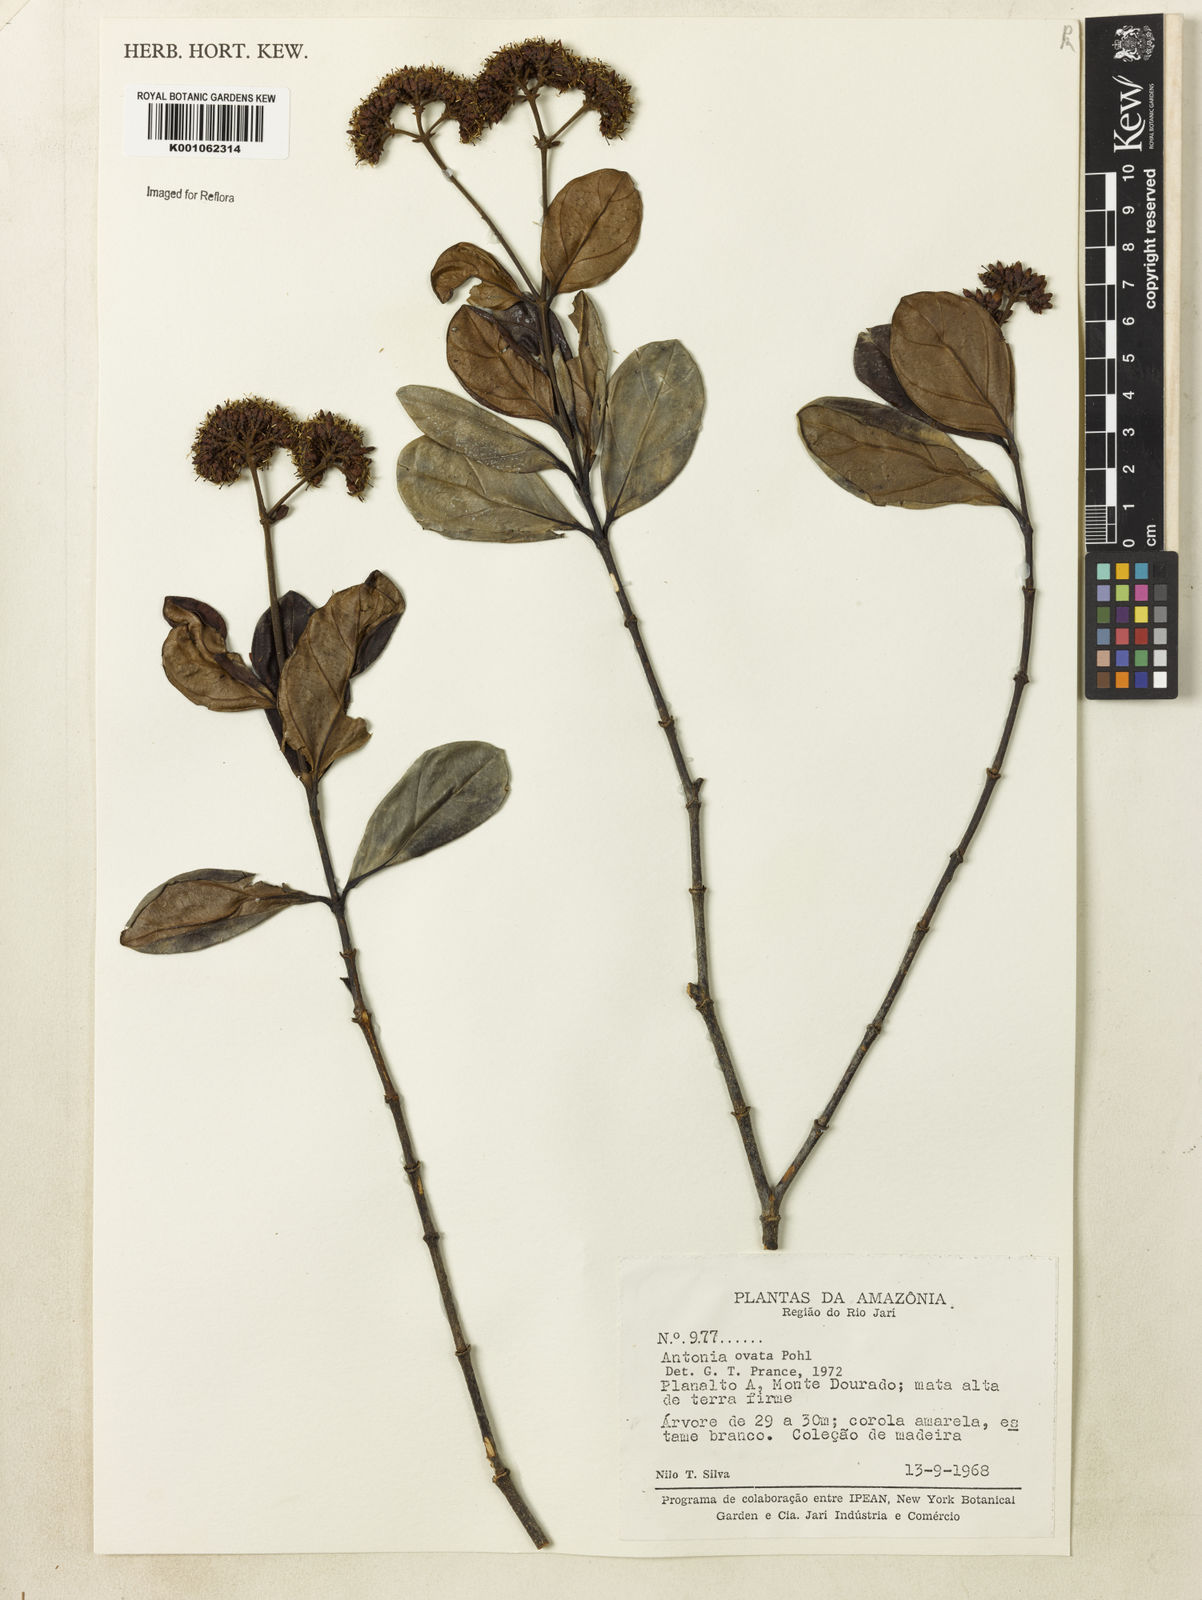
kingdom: Plantae
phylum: Tracheophyta
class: Magnoliopsida
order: Gentianales
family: Loganiaceae
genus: Antonia
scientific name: Antonia ovata
